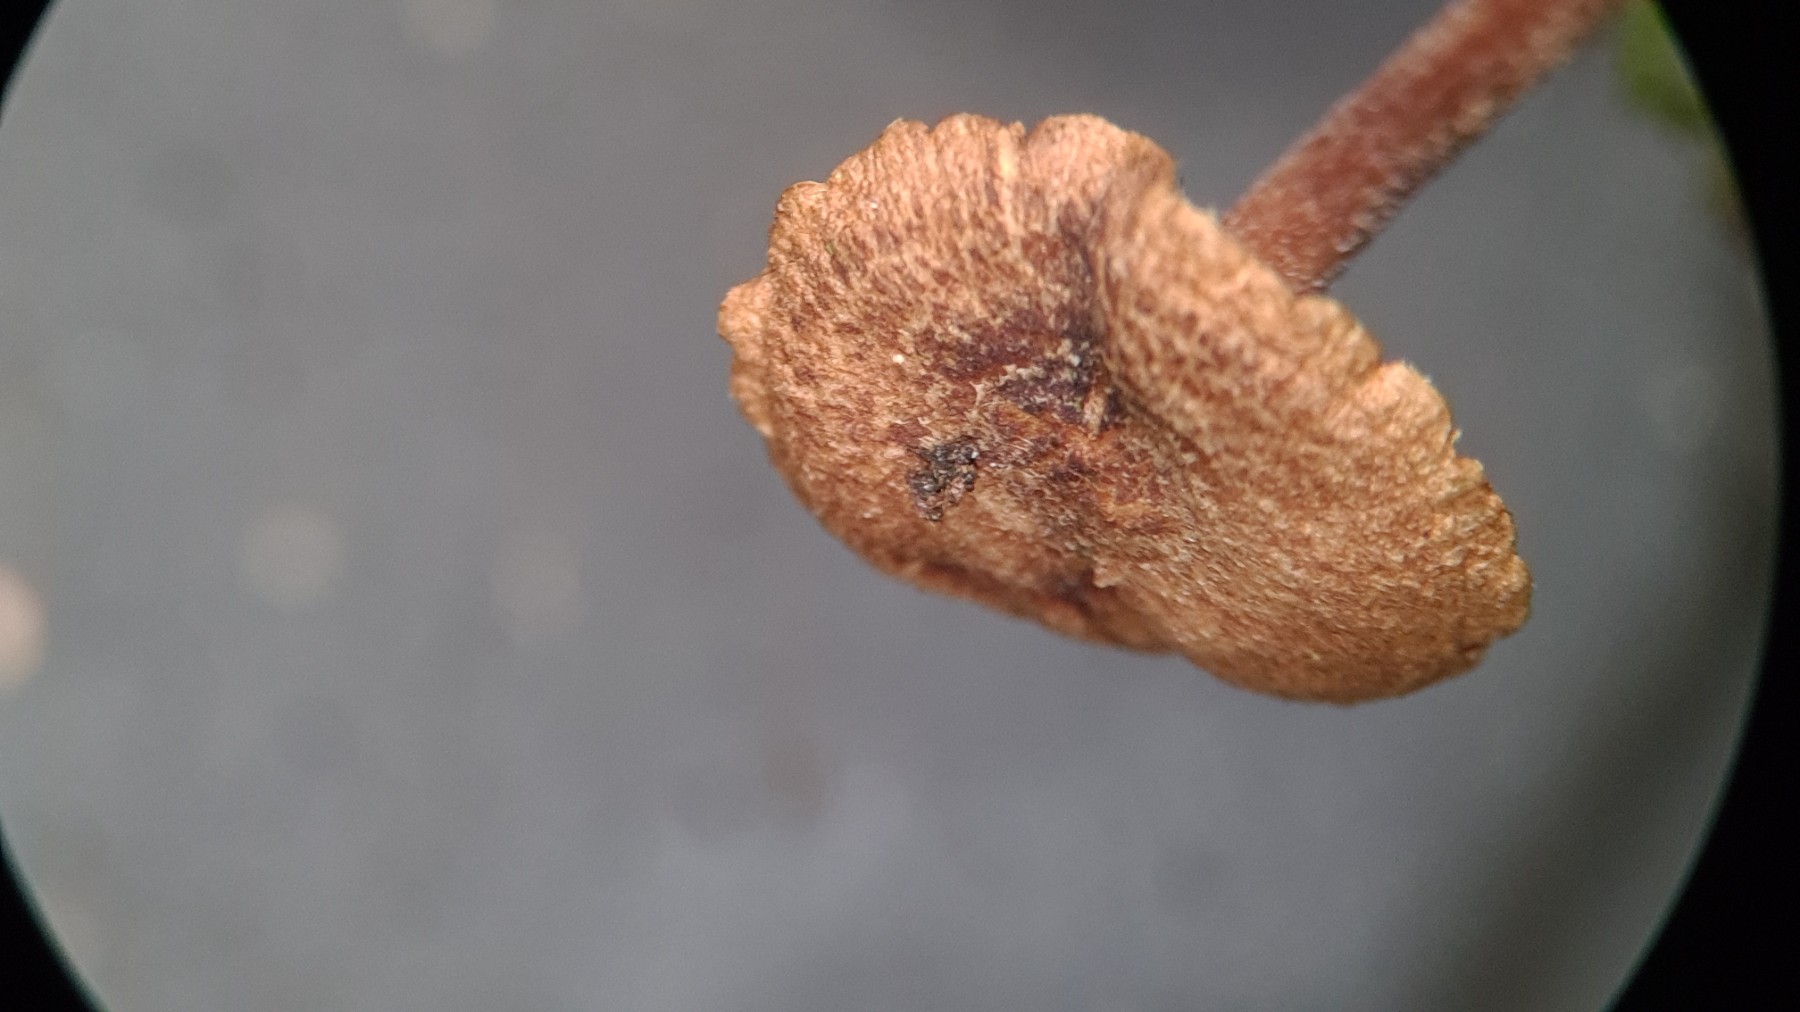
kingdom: Fungi
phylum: Basidiomycota
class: Agaricomycetes
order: Agaricales
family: Inocybaceae
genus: Inocybe
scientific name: Inocybe petiginosa
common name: liden trævlhat
